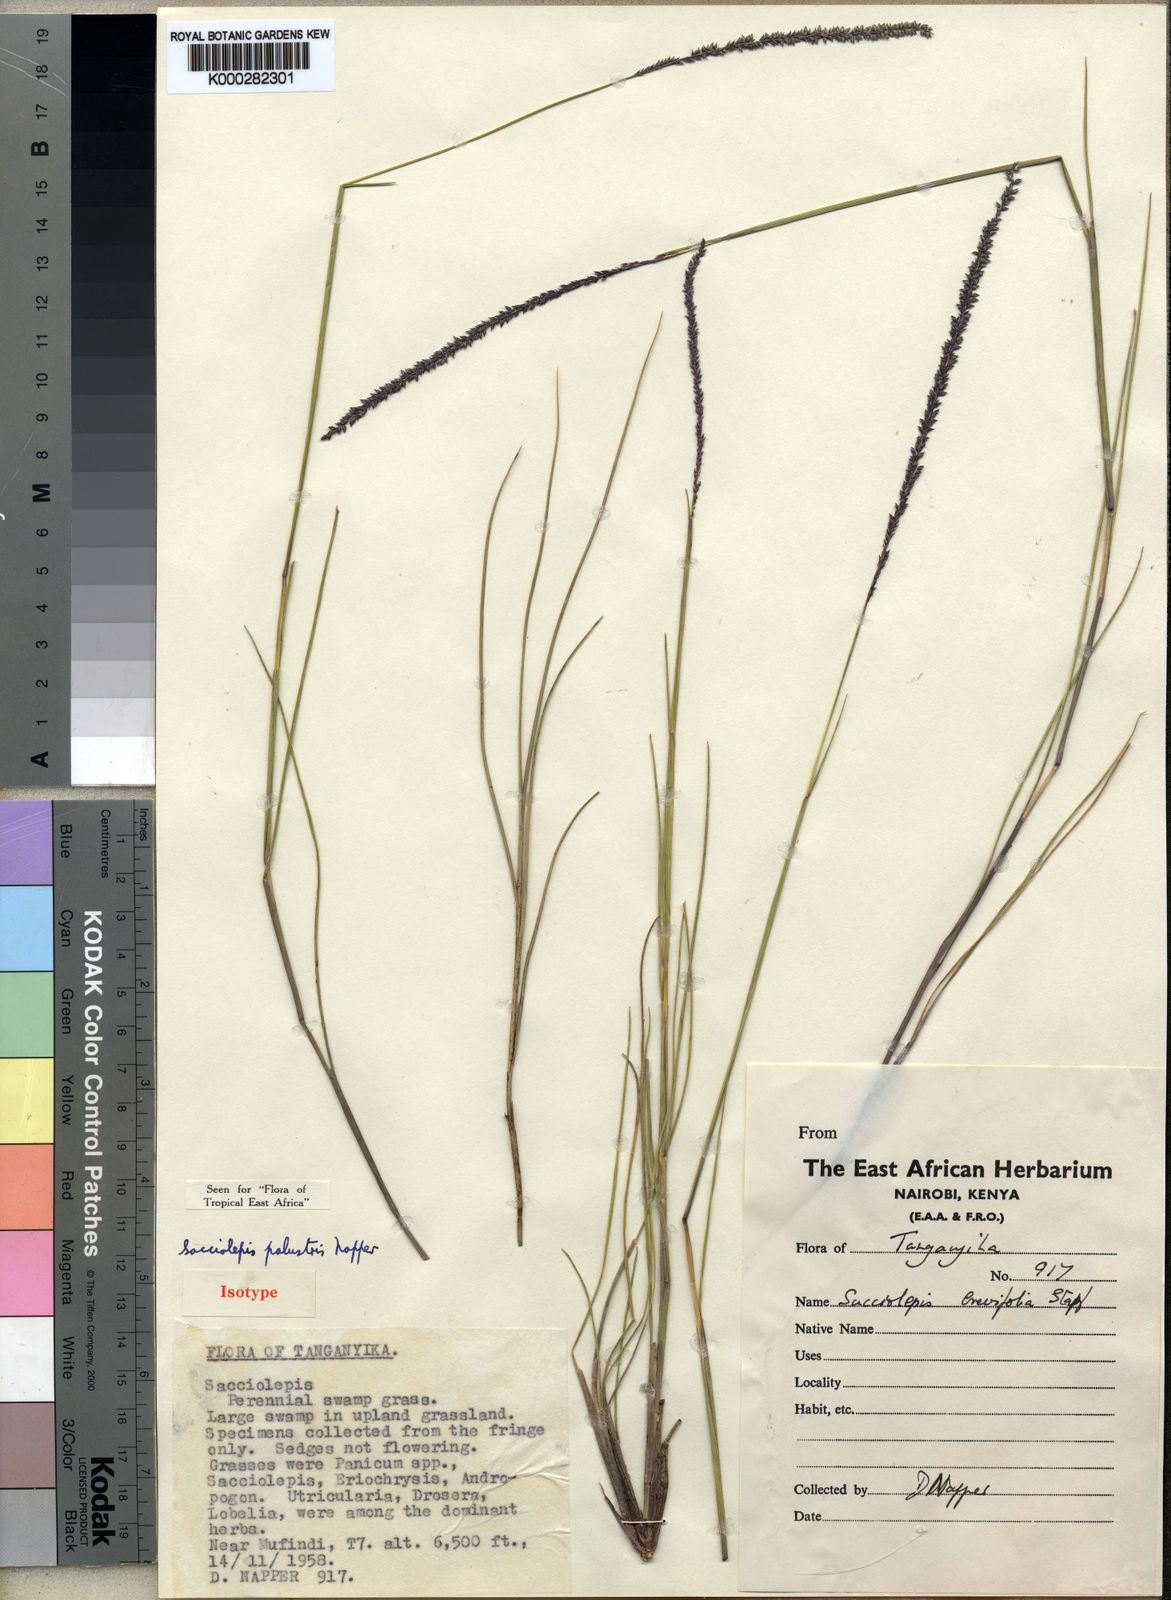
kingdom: Plantae
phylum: Tracheophyta
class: Liliopsida
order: Poales
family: Poaceae
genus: Sacciolepis
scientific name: Sacciolepis chevalieri
